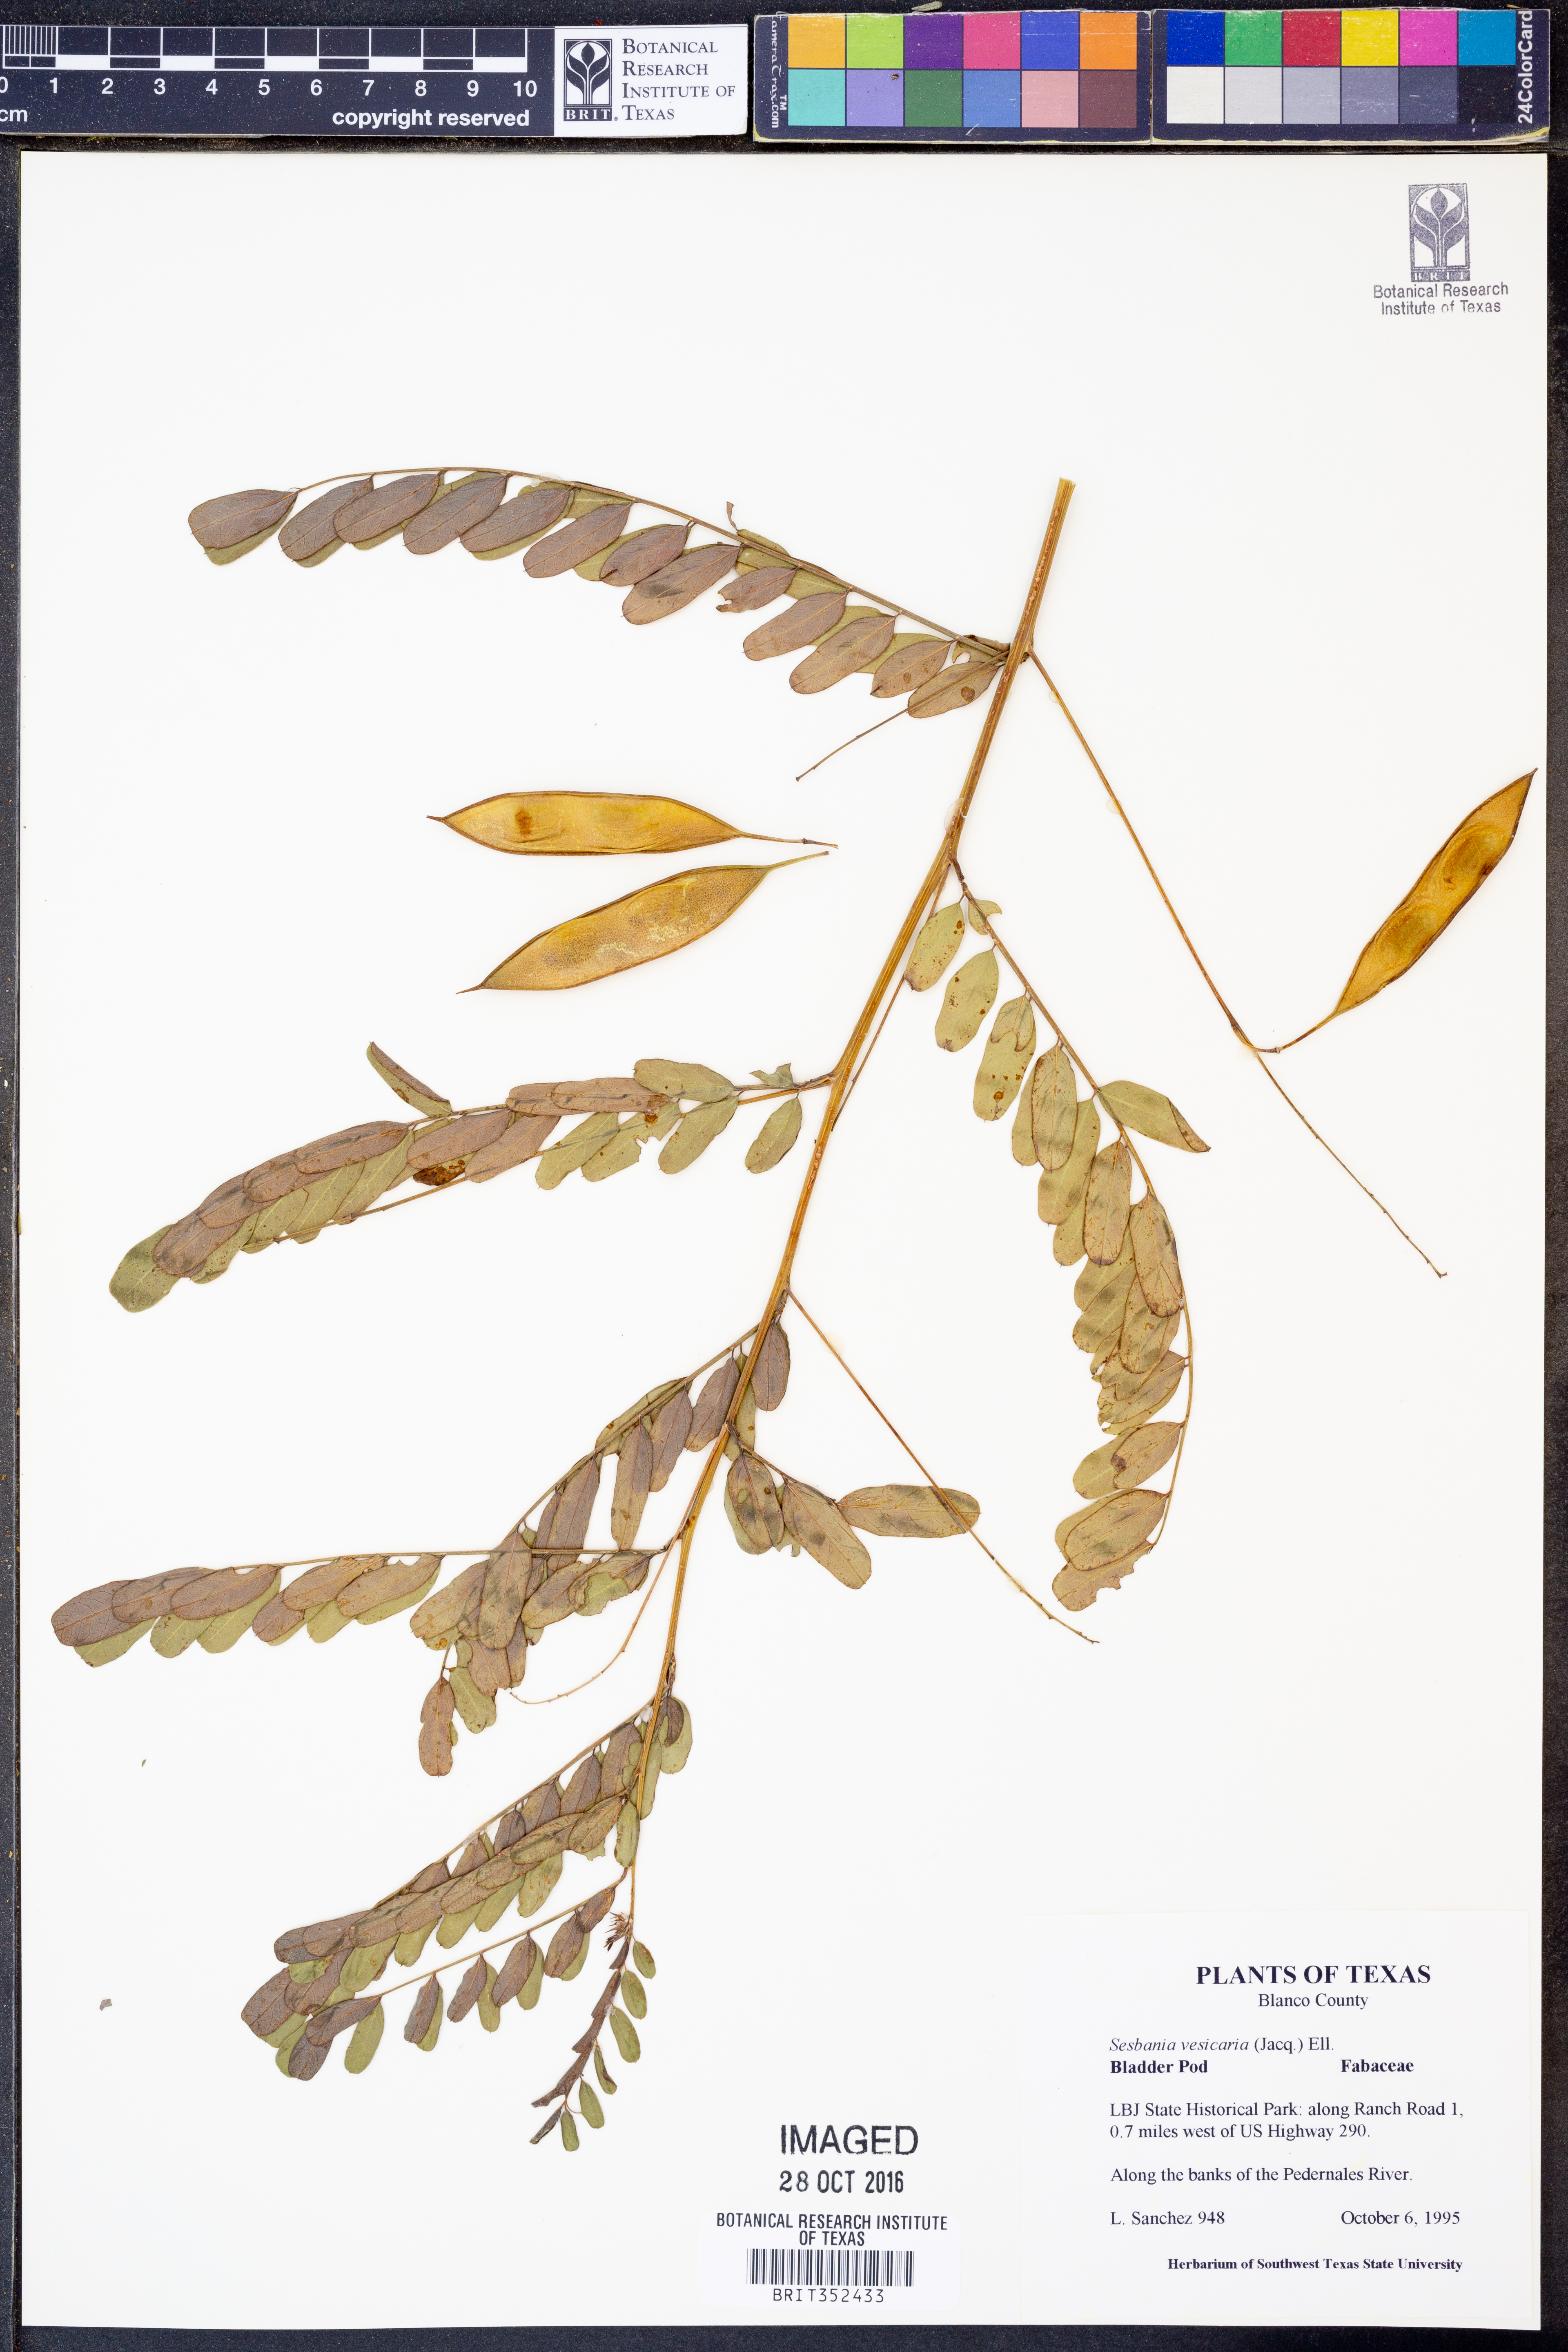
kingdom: Plantae
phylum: Tracheophyta
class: Magnoliopsida
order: Fabales
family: Fabaceae
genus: Sesbania
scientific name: Sesbania vesicaria
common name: Bagpod
